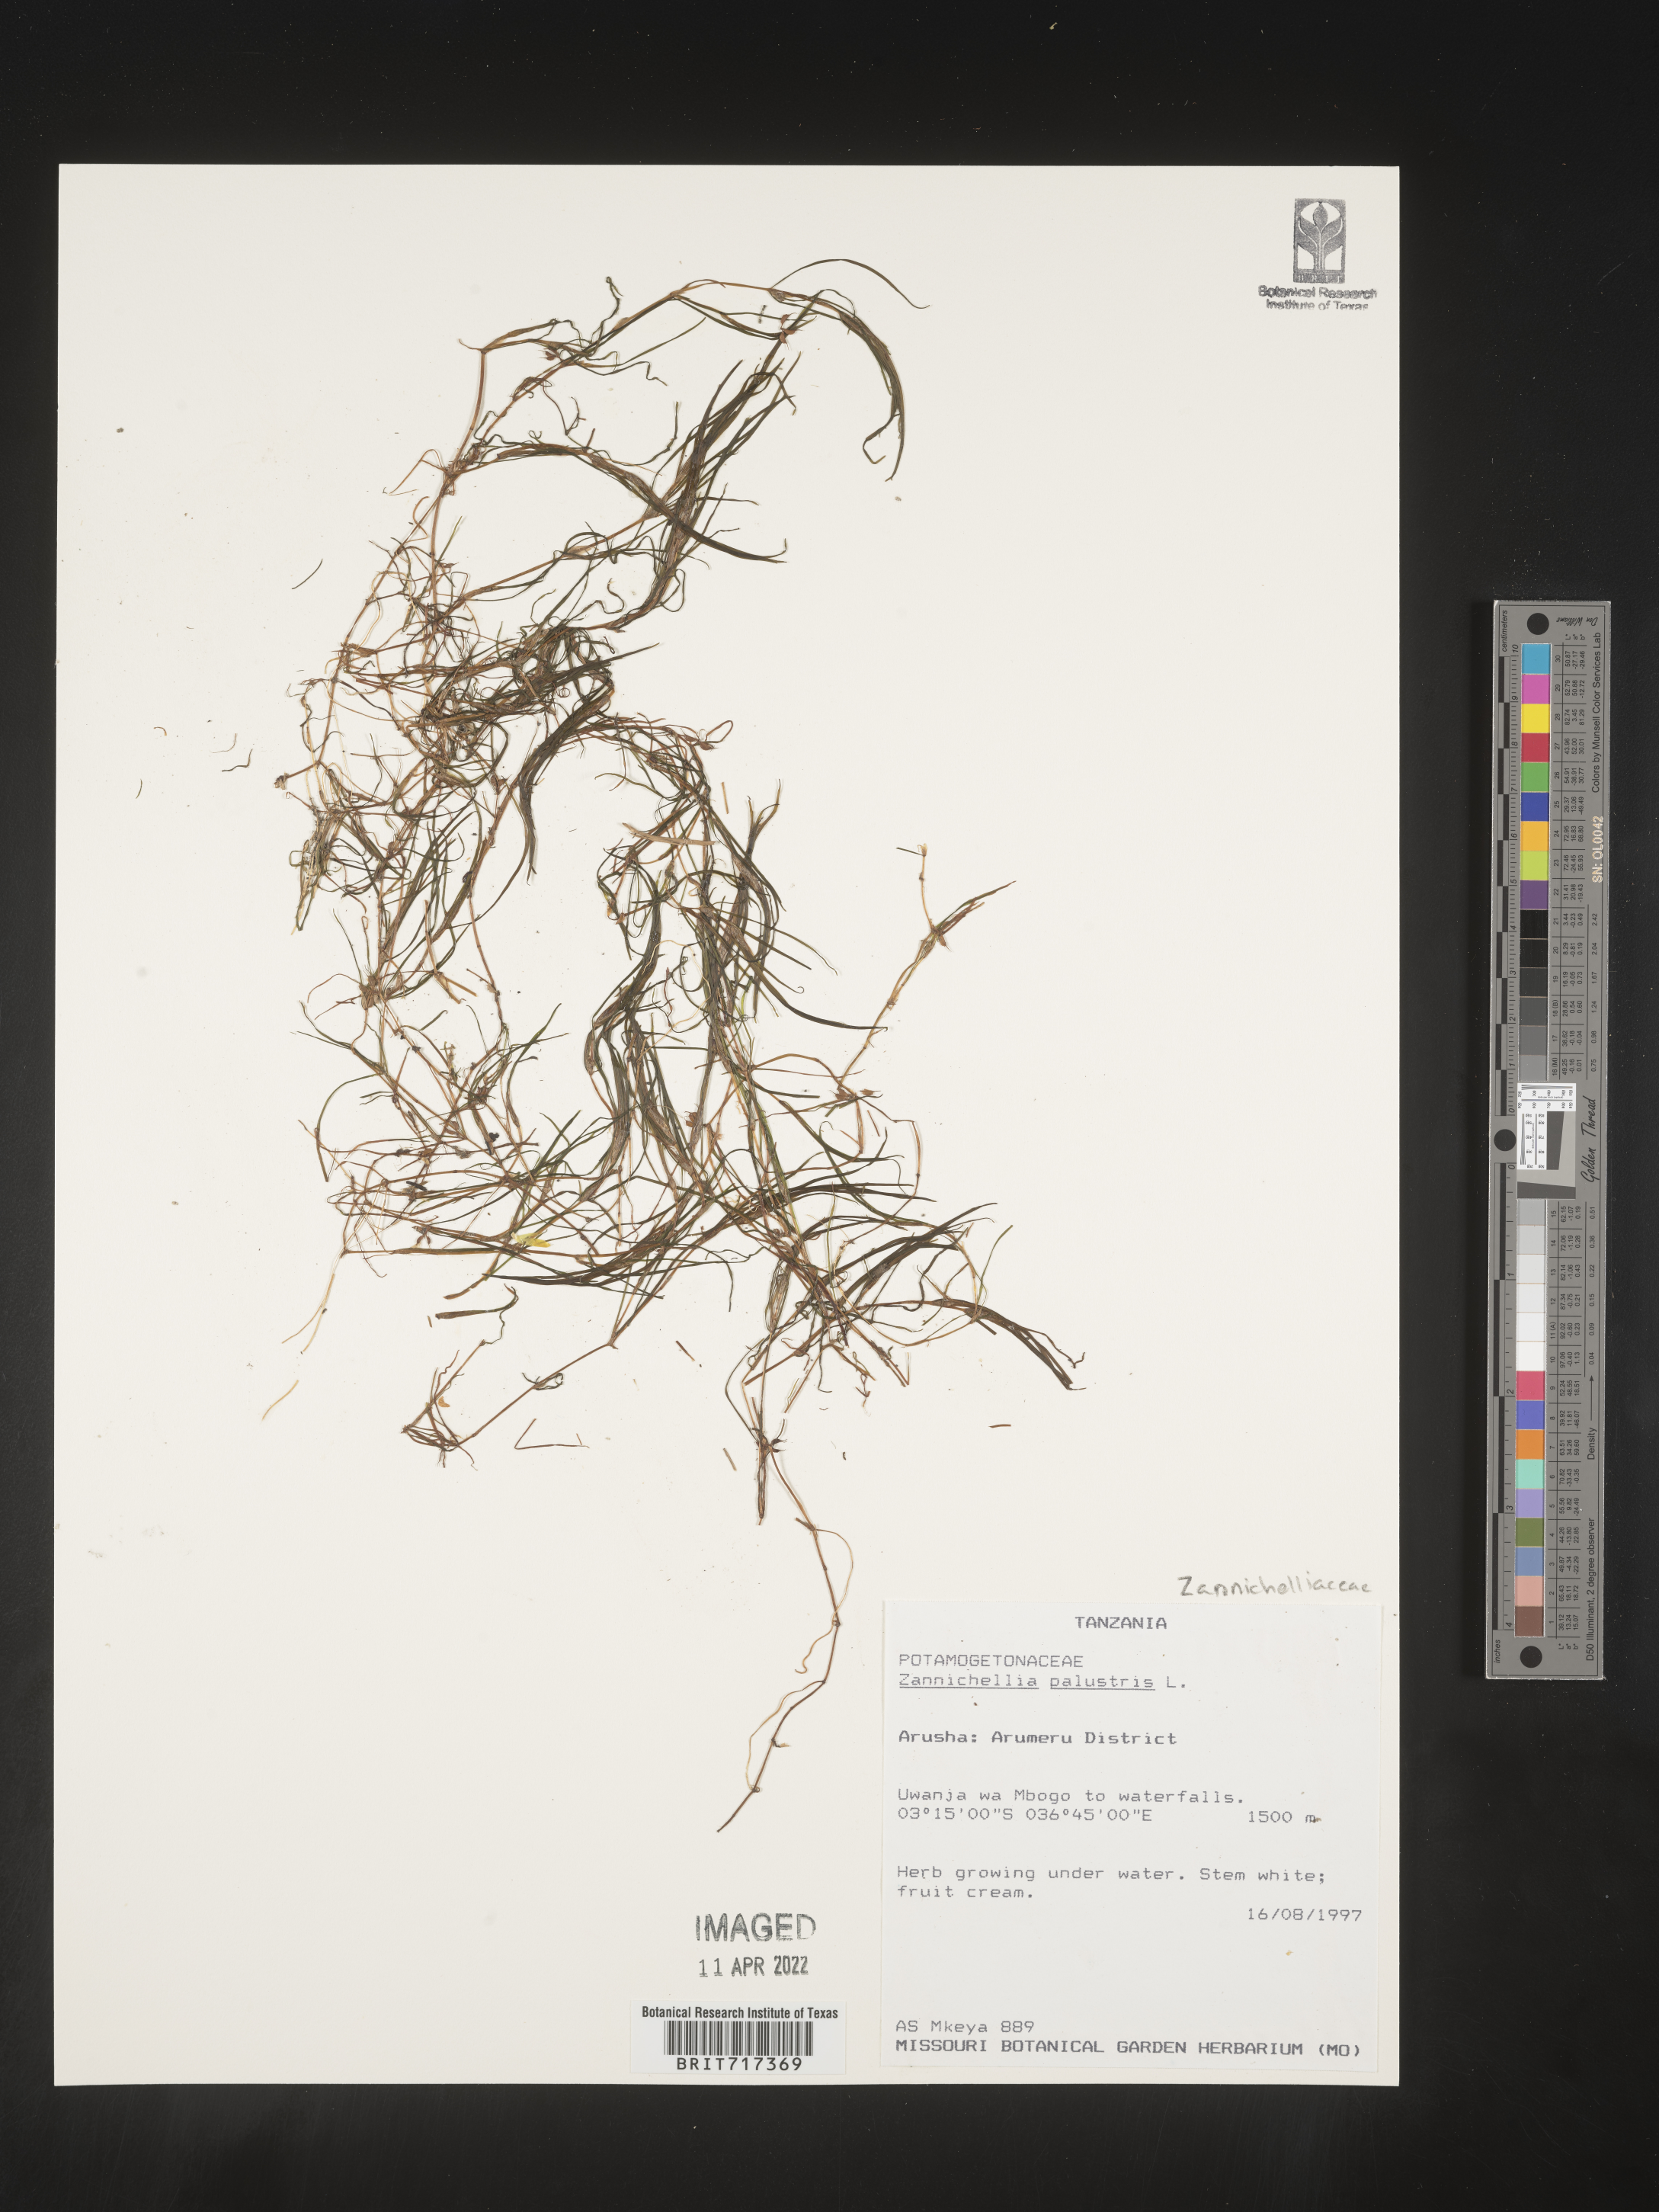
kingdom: Plantae
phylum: Tracheophyta
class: Liliopsida
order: Alismatales
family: Potamogetonaceae
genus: Zannichellia
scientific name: Zannichellia
